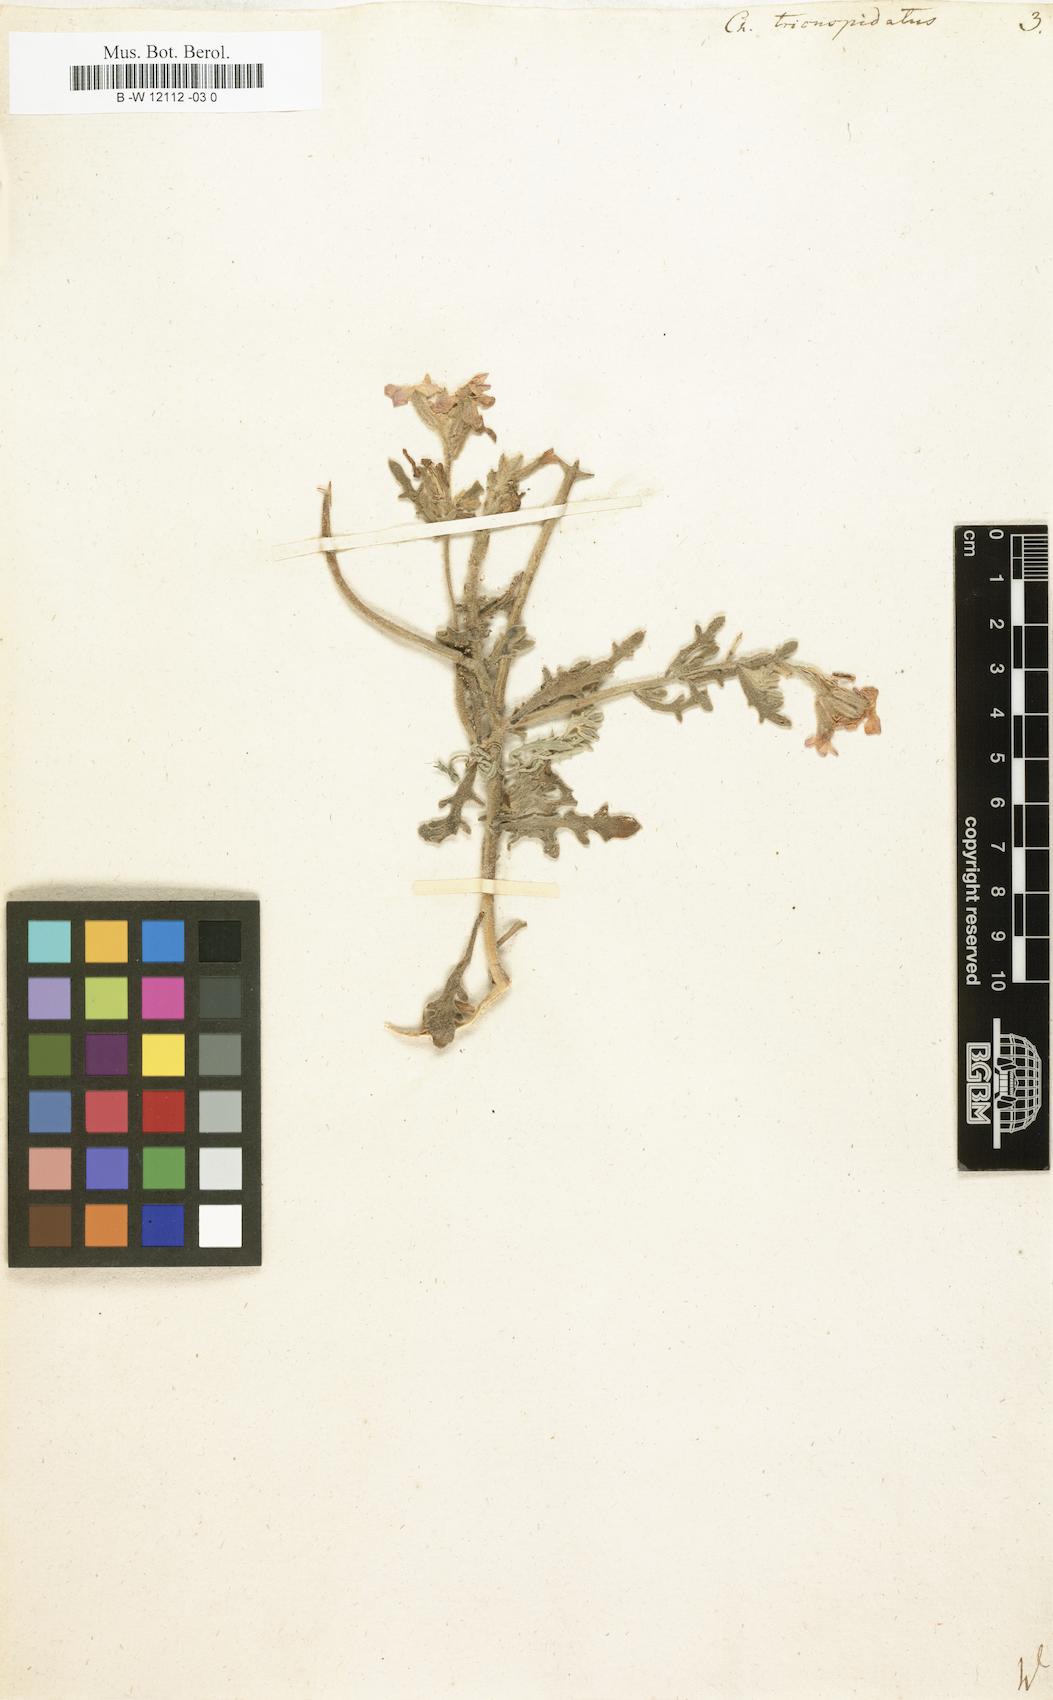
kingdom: Plantae
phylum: Tracheophyta
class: Magnoliopsida
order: Brassicales
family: Brassicaceae
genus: Matthiola
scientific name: Matthiola
